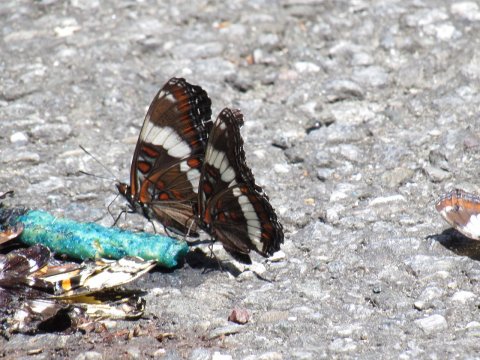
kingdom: Animalia
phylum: Arthropoda
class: Insecta
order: Lepidoptera
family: Nymphalidae
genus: Limenitis
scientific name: Limenitis arthemis
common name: Red-spotted Admiral
